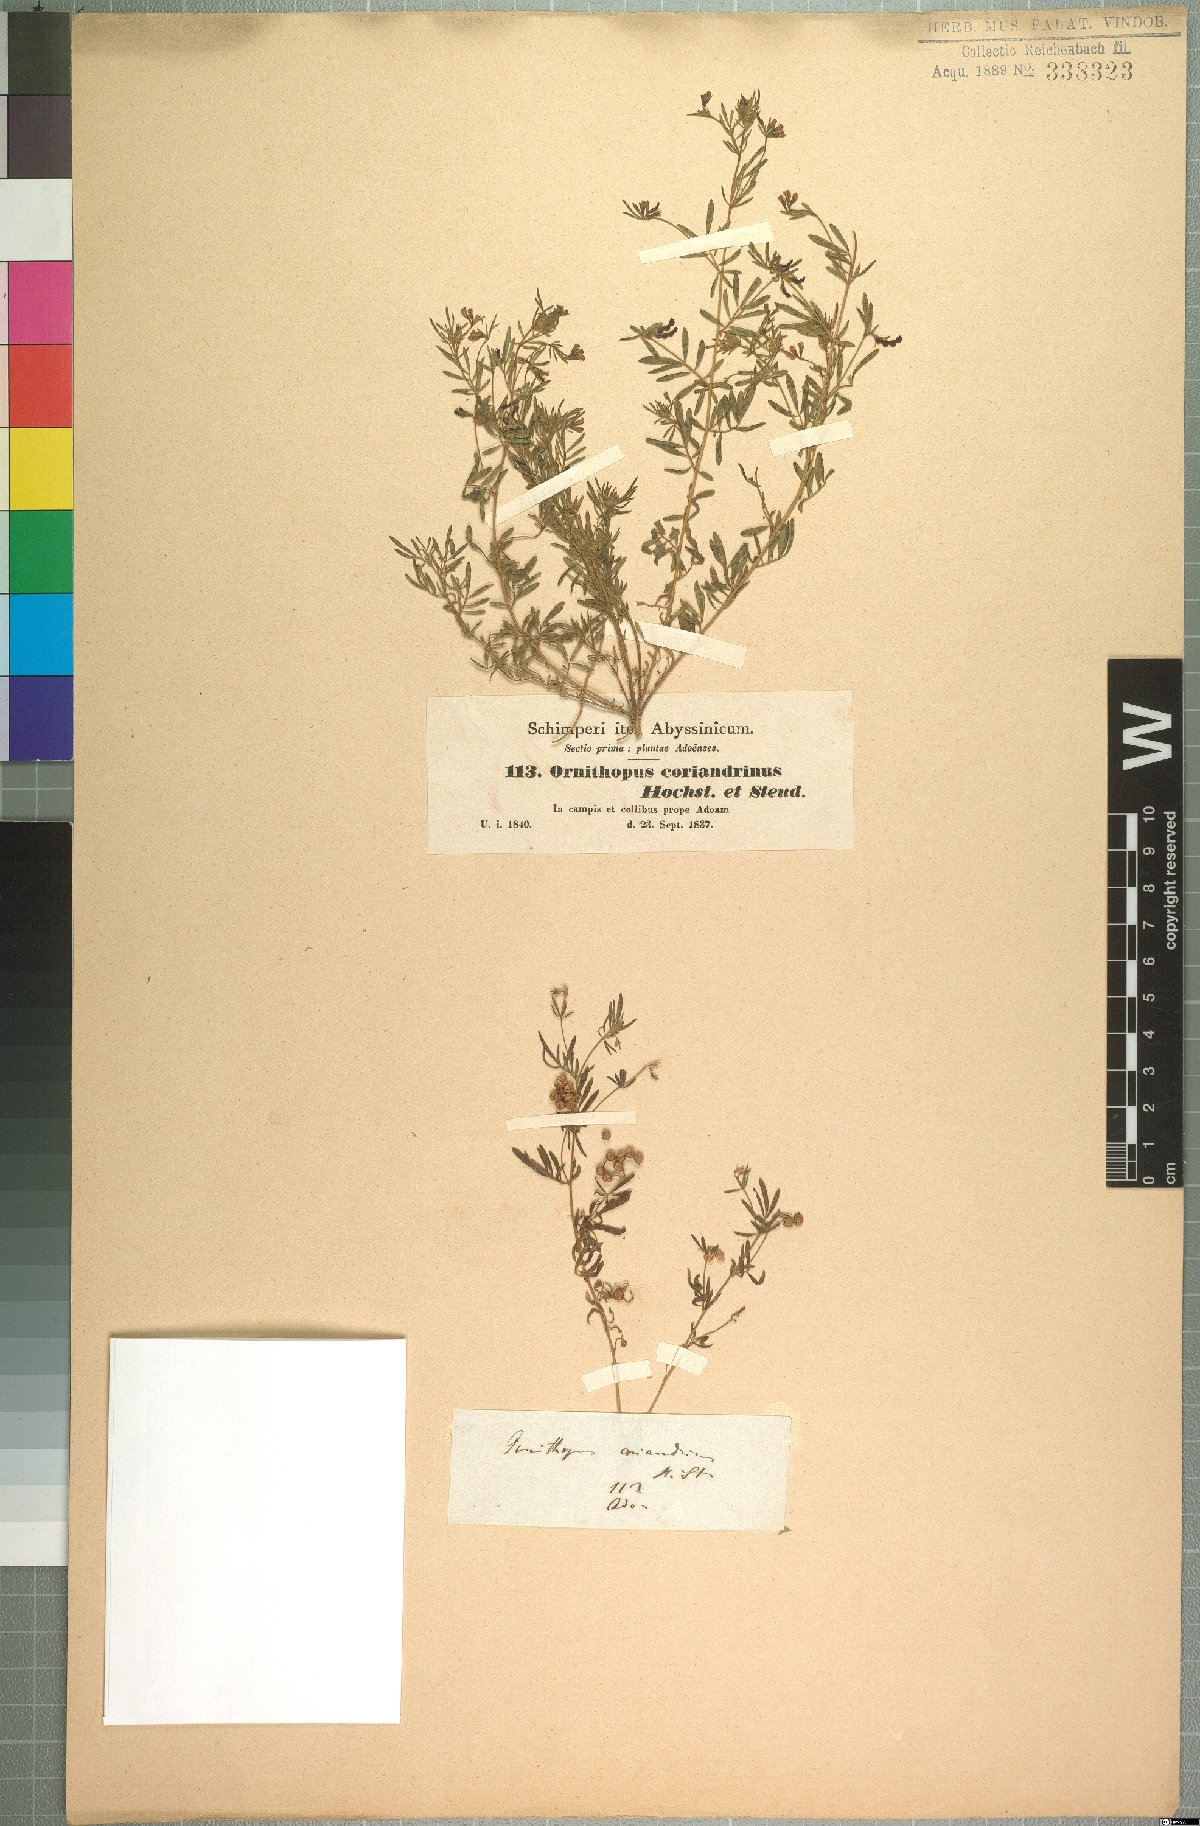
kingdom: Plantae
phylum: Tracheophyta
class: Magnoliopsida
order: Fabales
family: Fabaceae
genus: Antopetitia
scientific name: Antopetitia abyssinica
